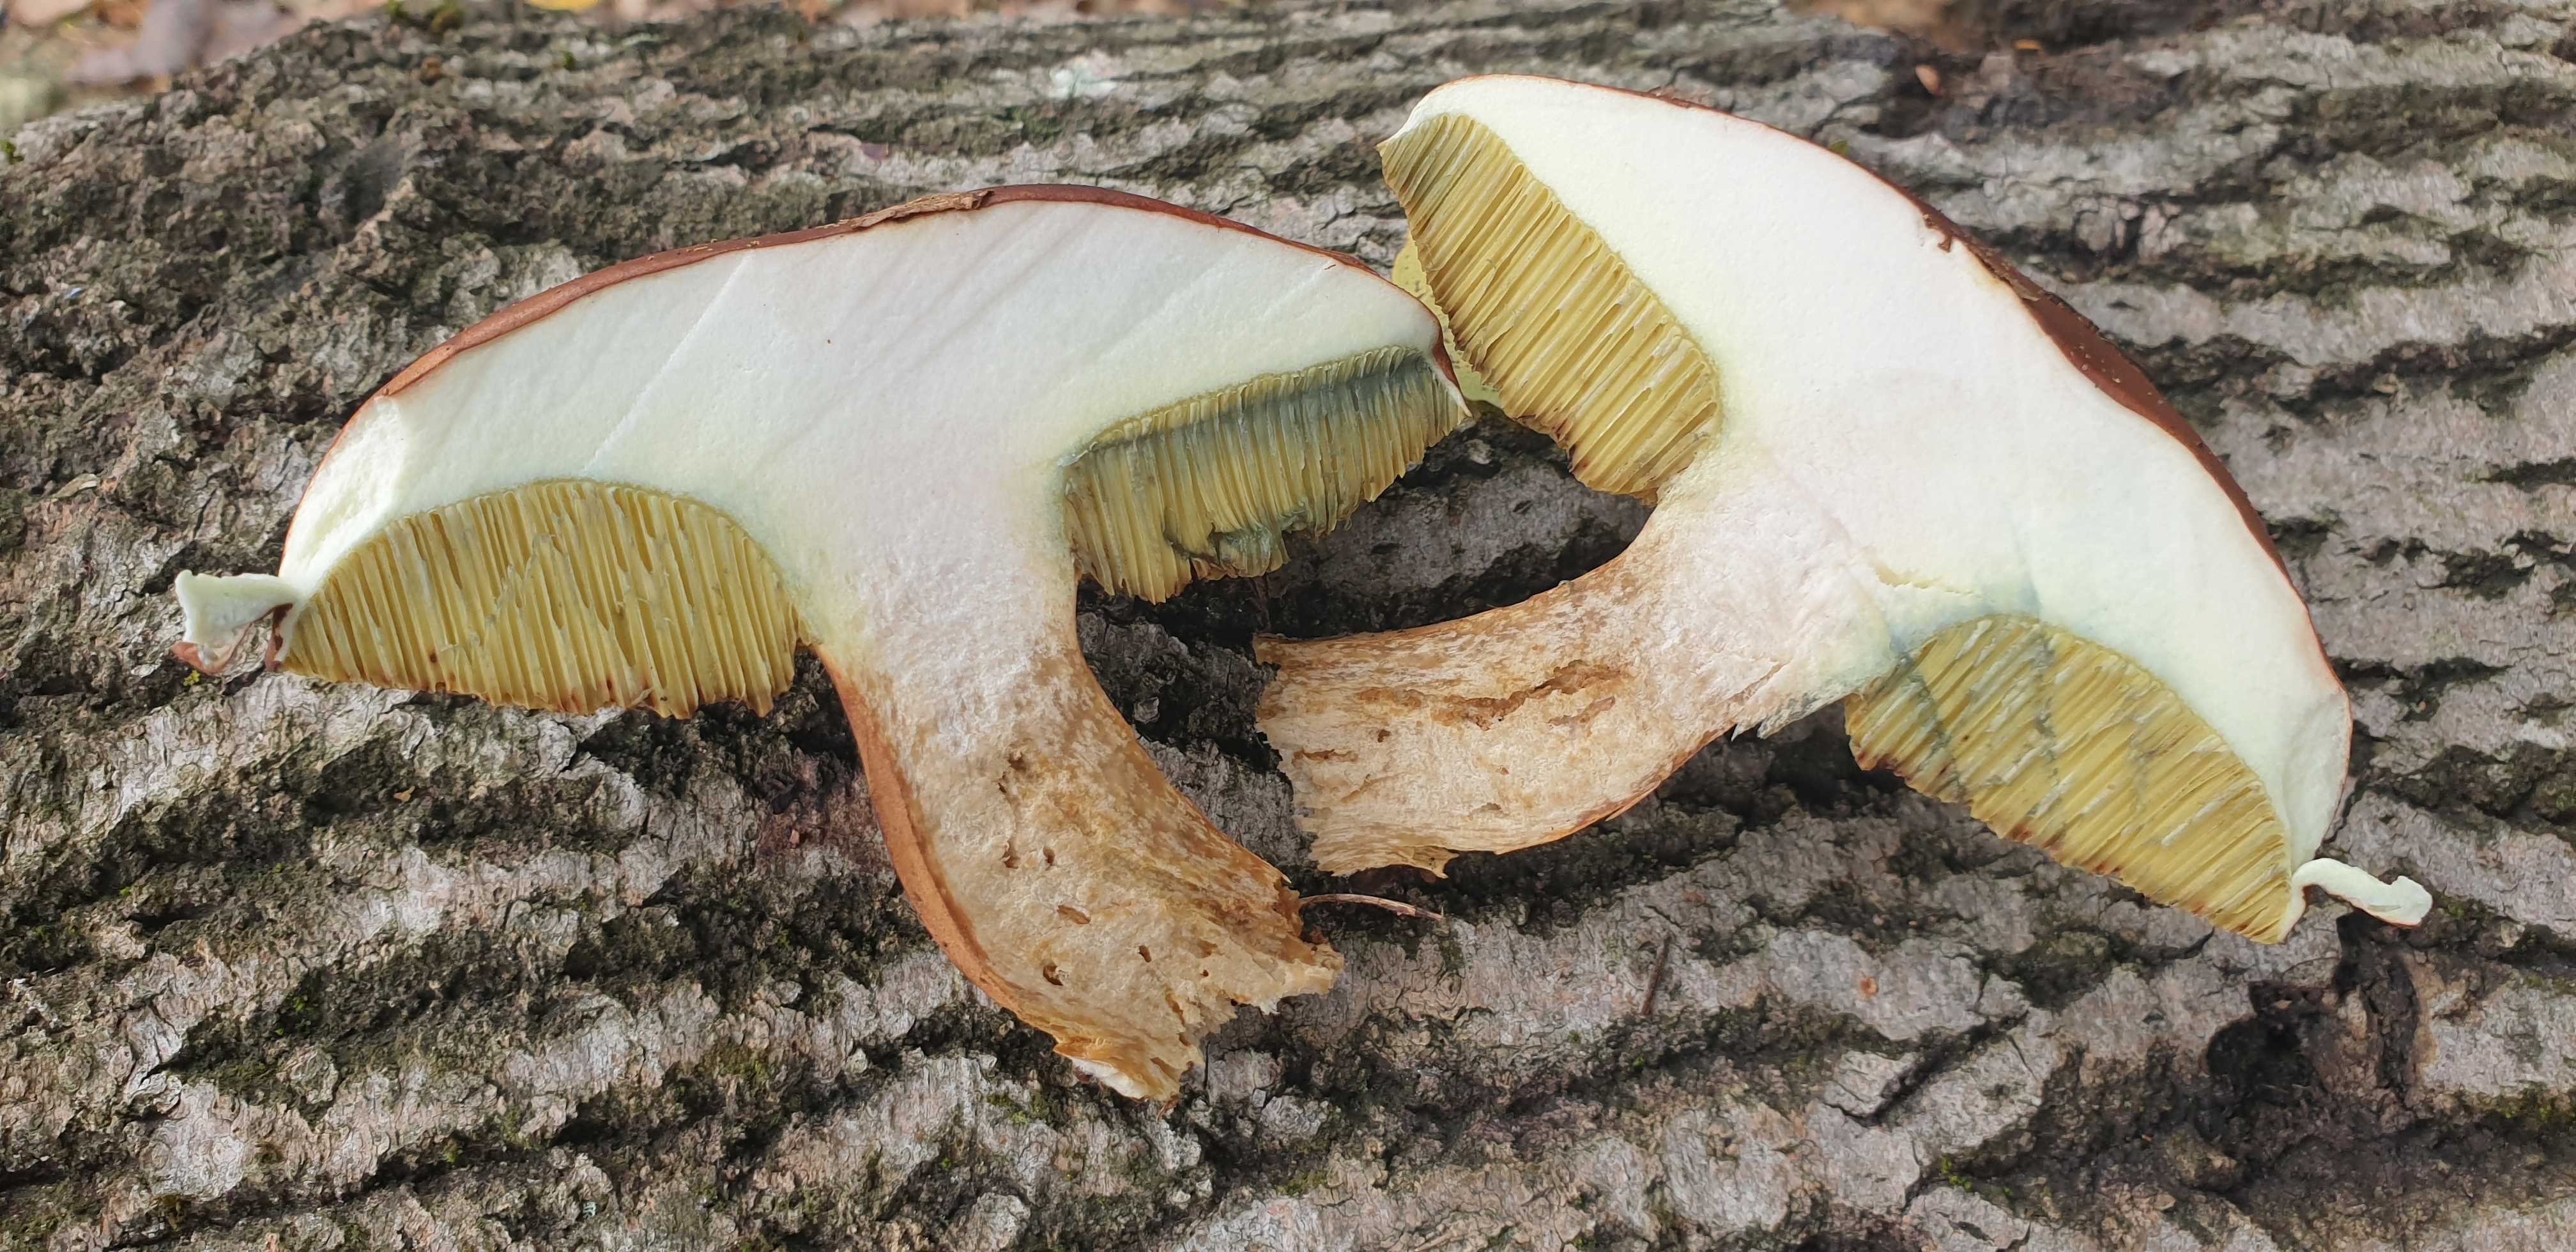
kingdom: Fungi
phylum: Basidiomycota
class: Agaricomycetes
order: Boletales
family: Boletaceae
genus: Imleria
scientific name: Imleria badia
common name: brunstokket rørhat
